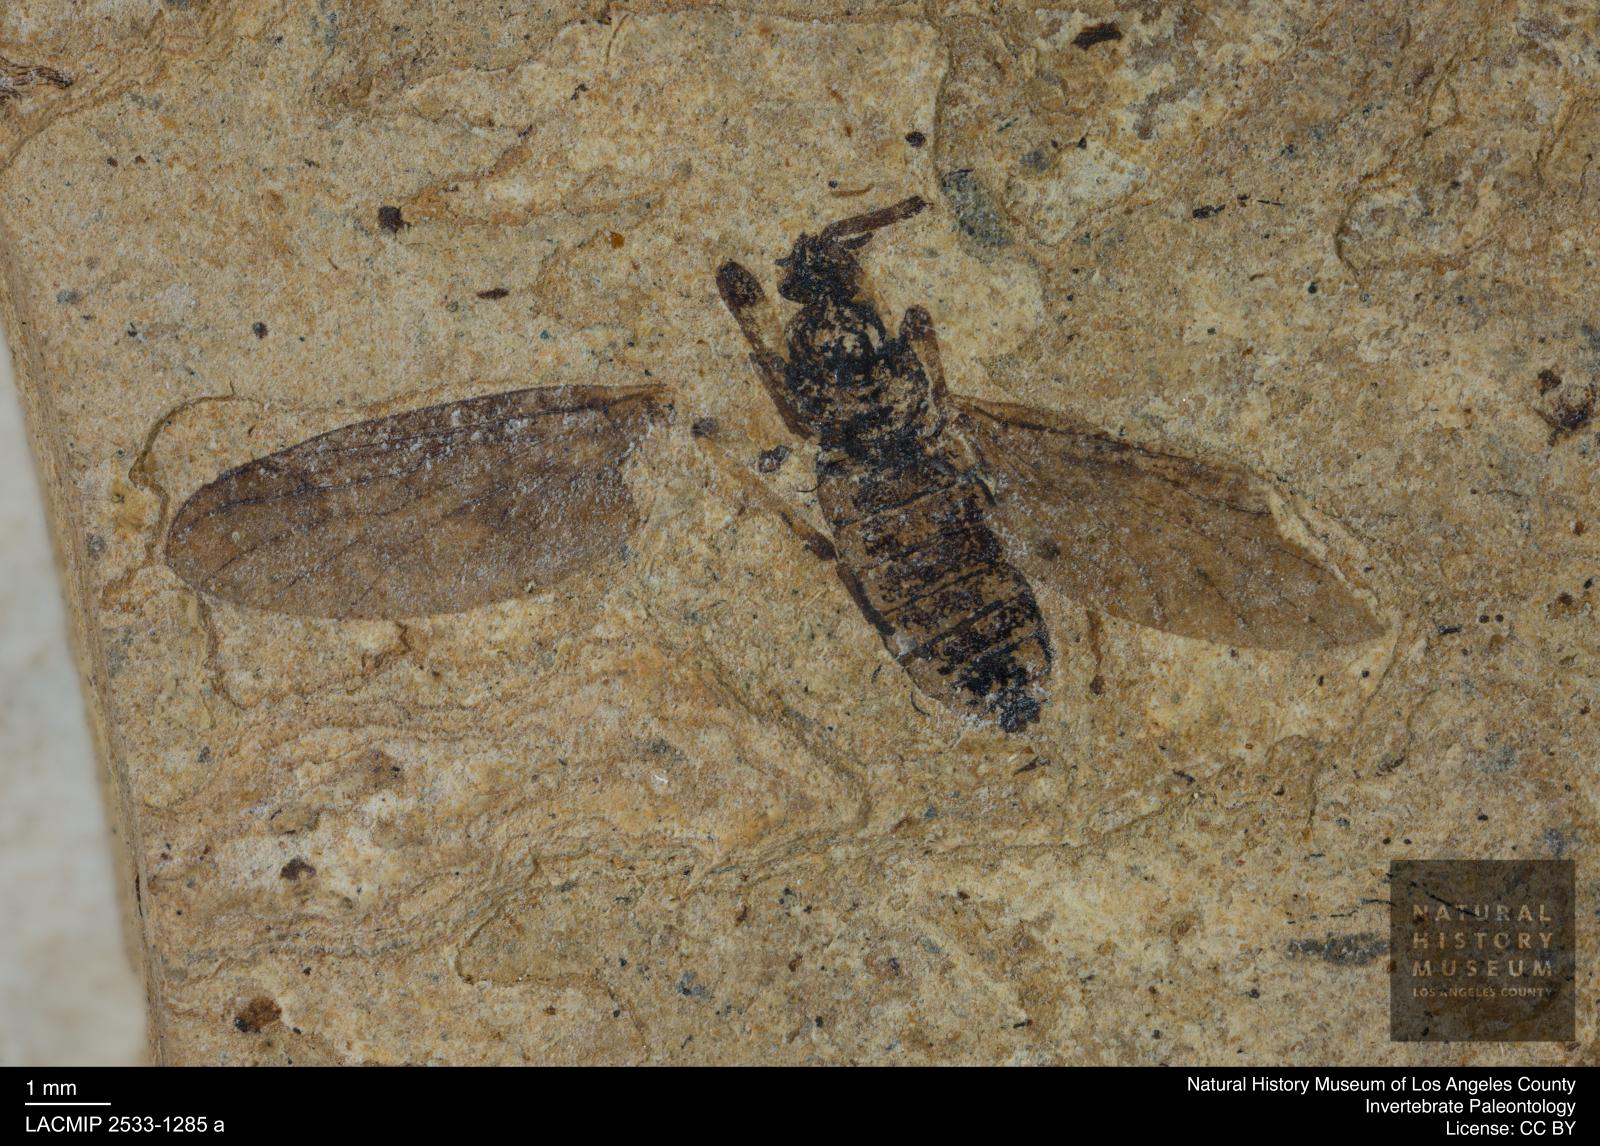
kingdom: Animalia
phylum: Arthropoda
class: Insecta
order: Diptera
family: Bibionidae
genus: Plecia
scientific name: Plecia stygia
